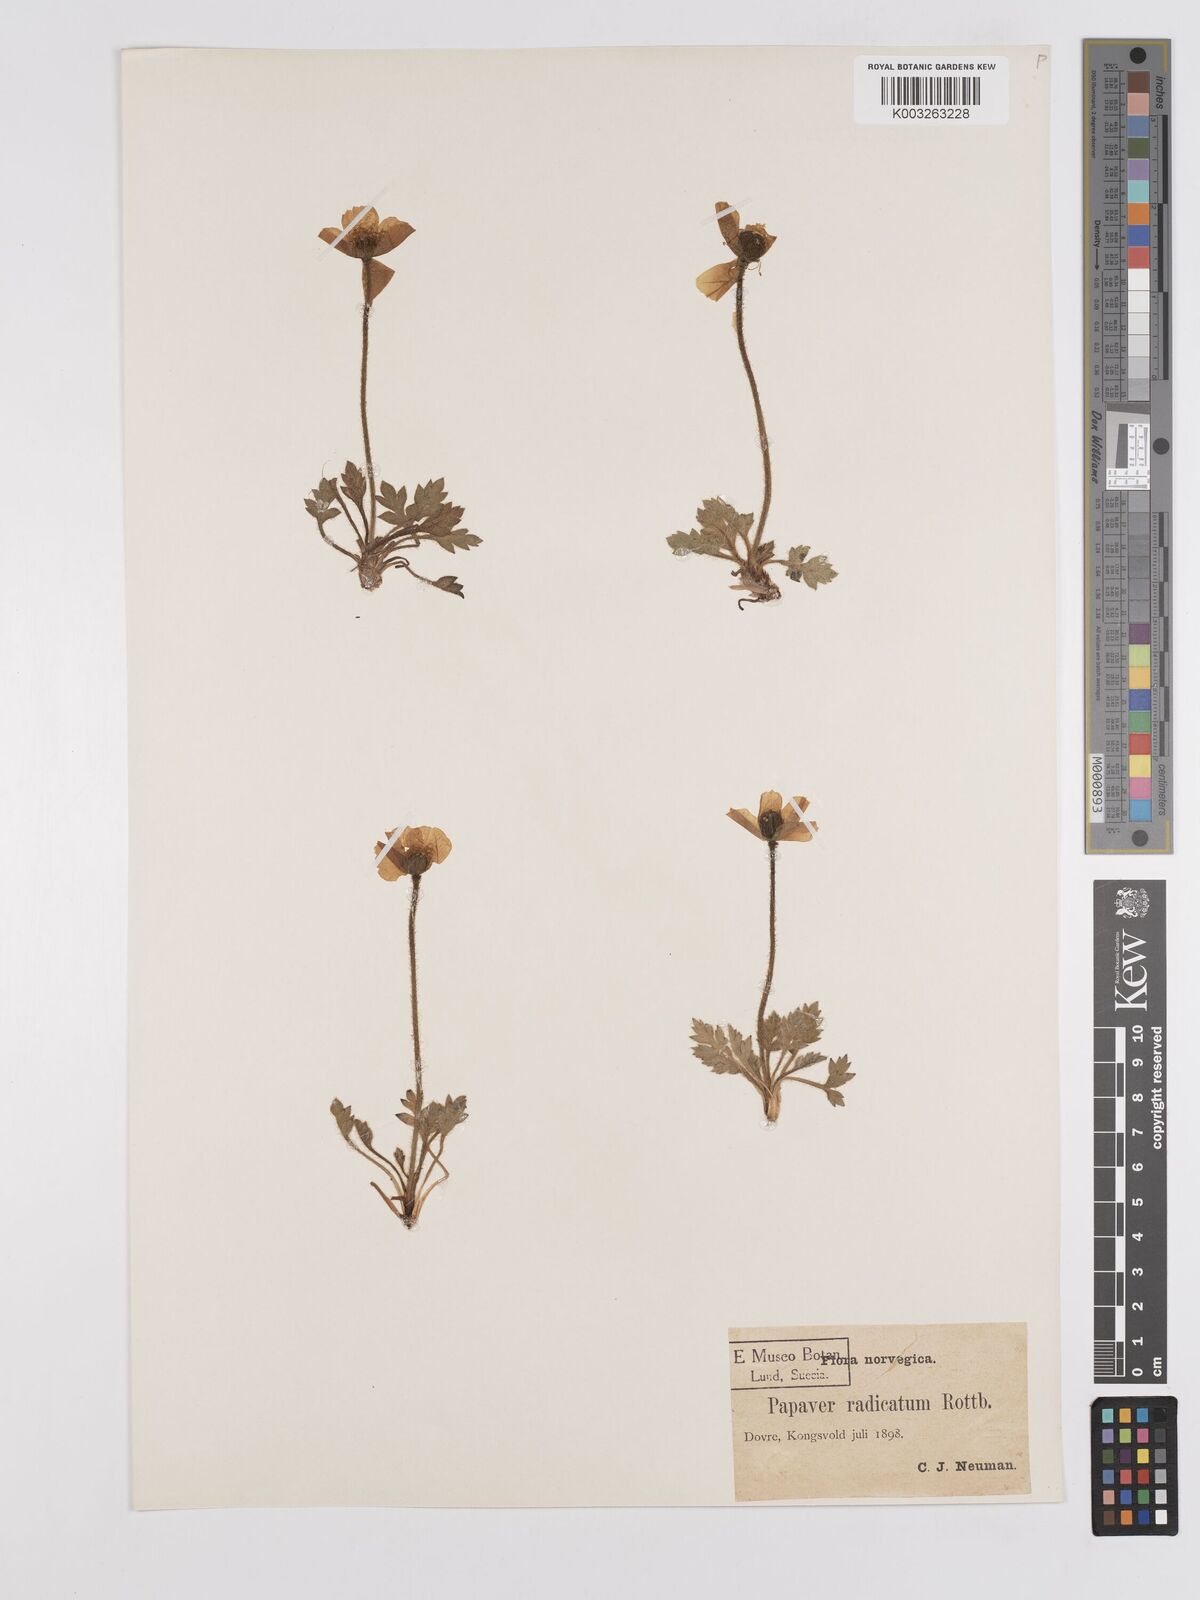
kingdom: Plantae
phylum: Tracheophyta
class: Magnoliopsida
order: Ranunculales
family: Papaveraceae
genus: Papaver
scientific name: Papaver radicatum
